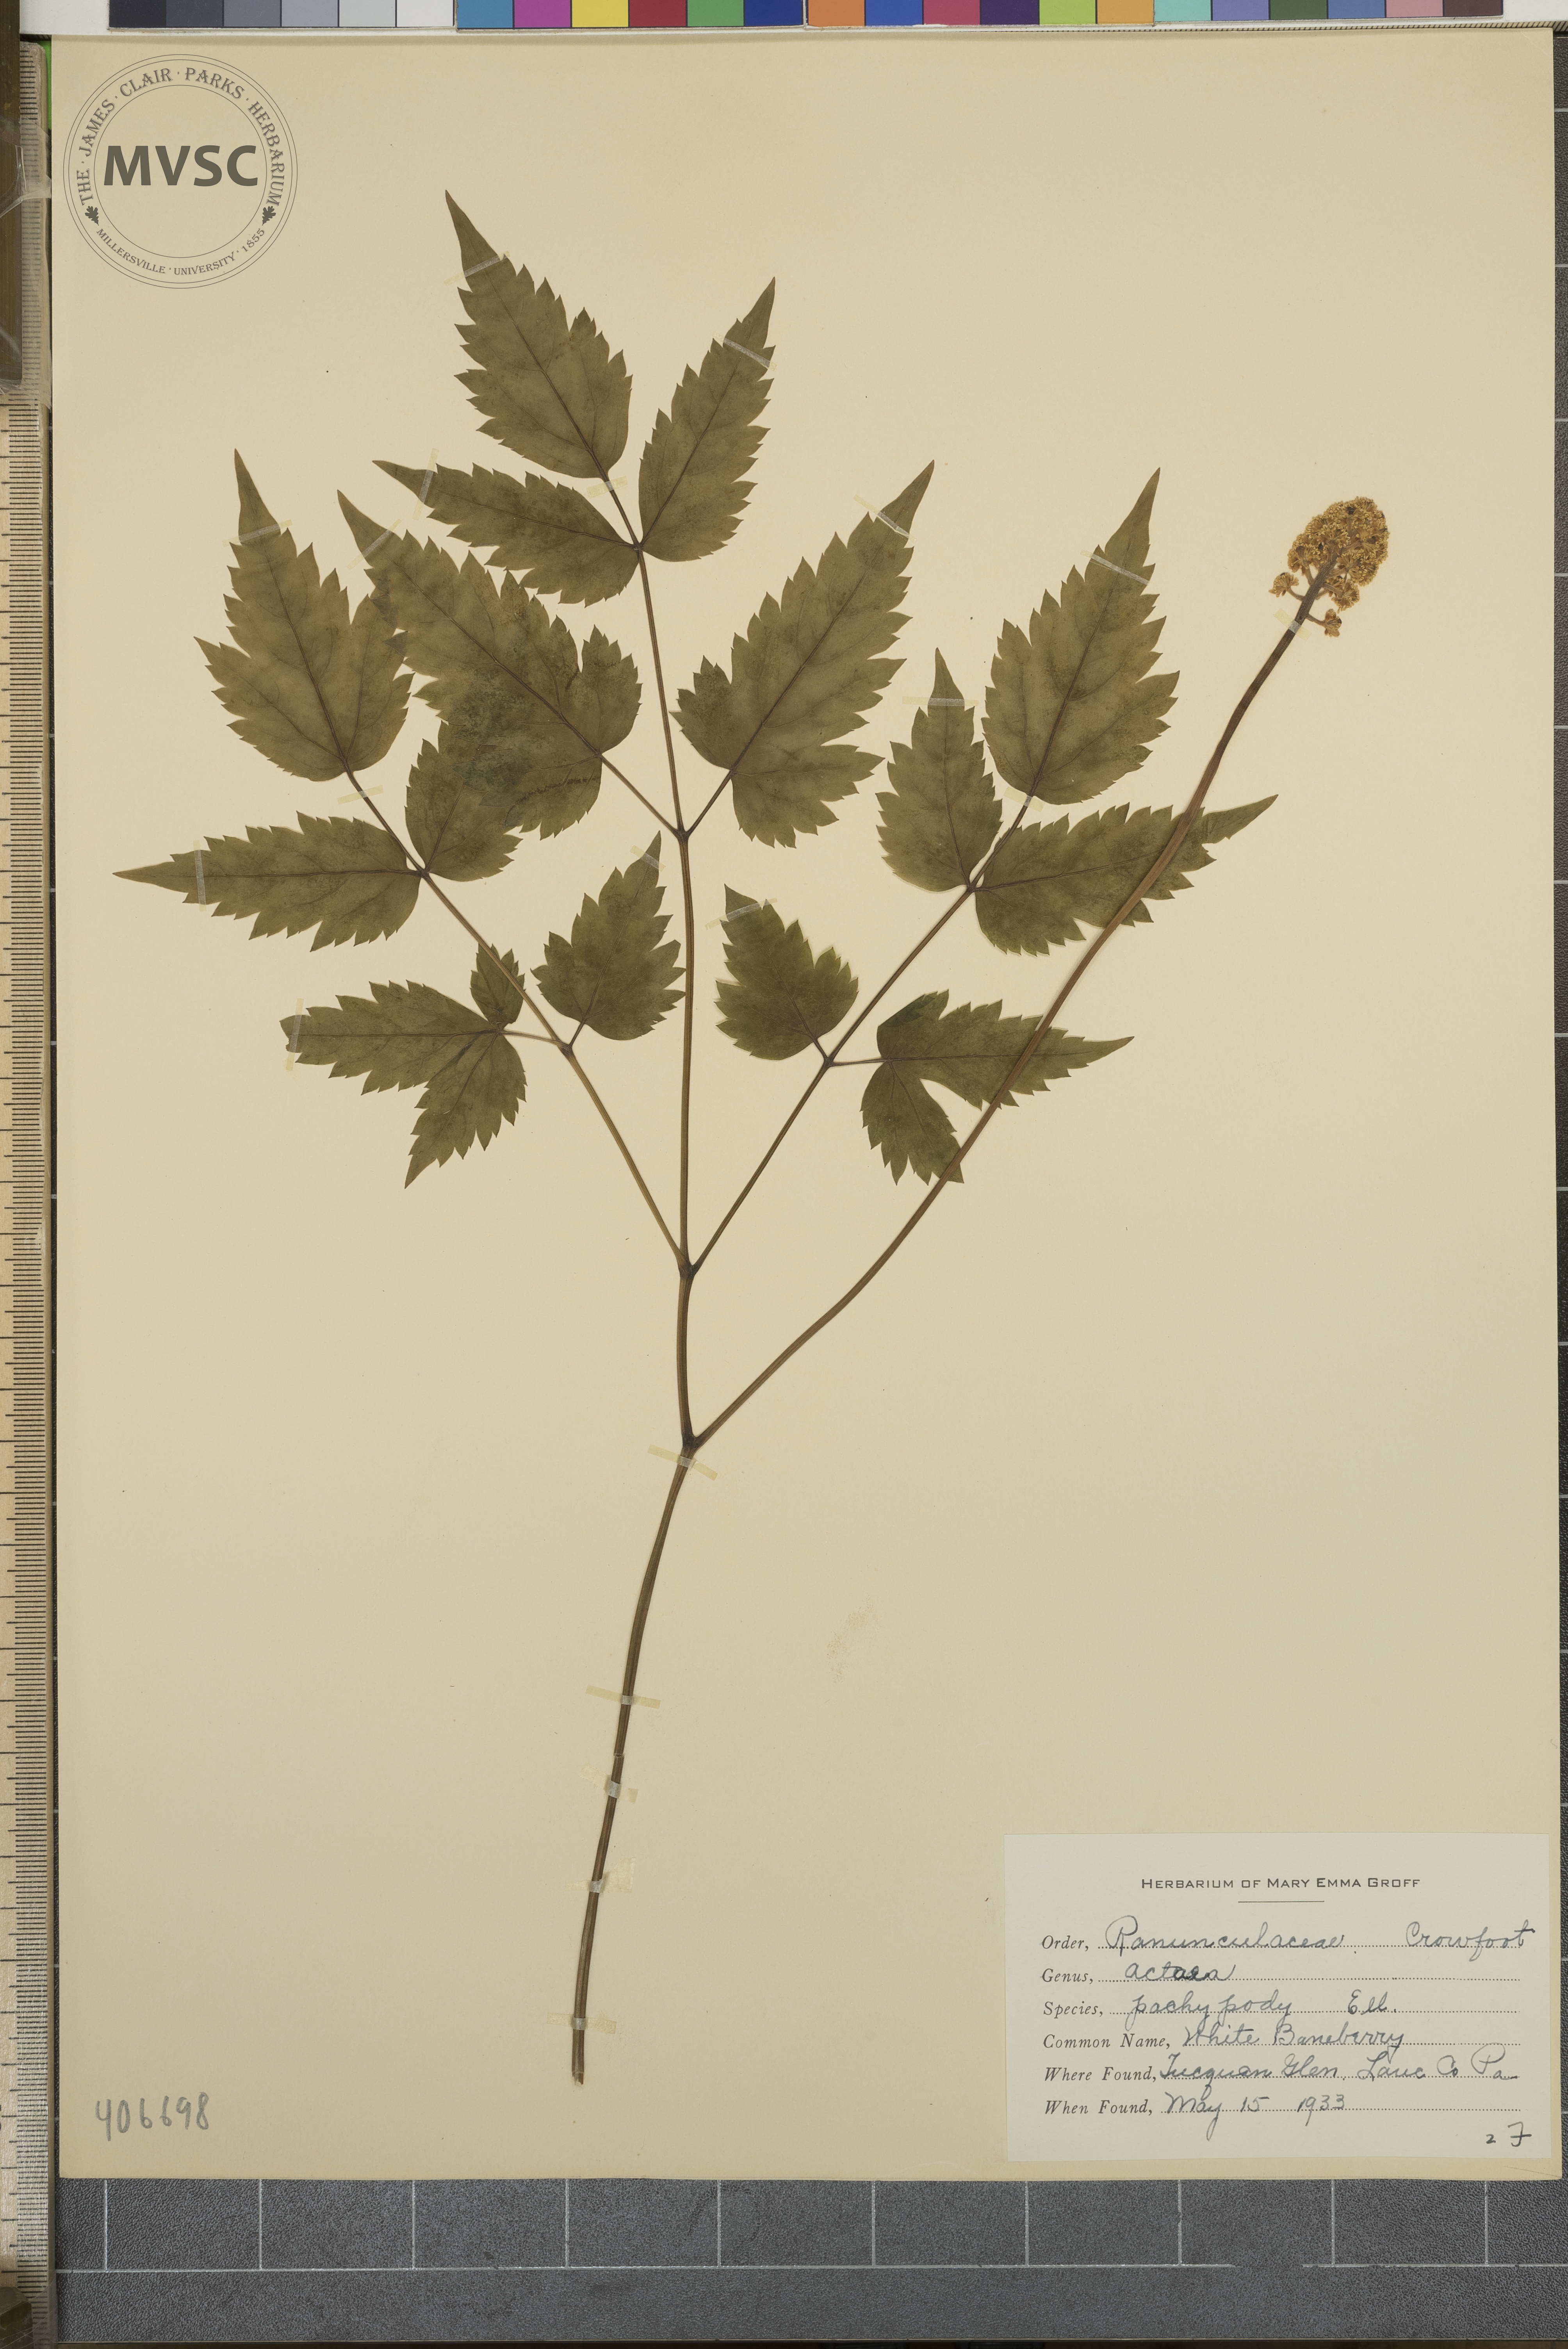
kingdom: Plantae
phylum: Tracheophyta
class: Magnoliopsida
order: Ranunculales
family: Ranunculaceae
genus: Actaea
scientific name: Actaea pachypoda
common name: white baneberry
